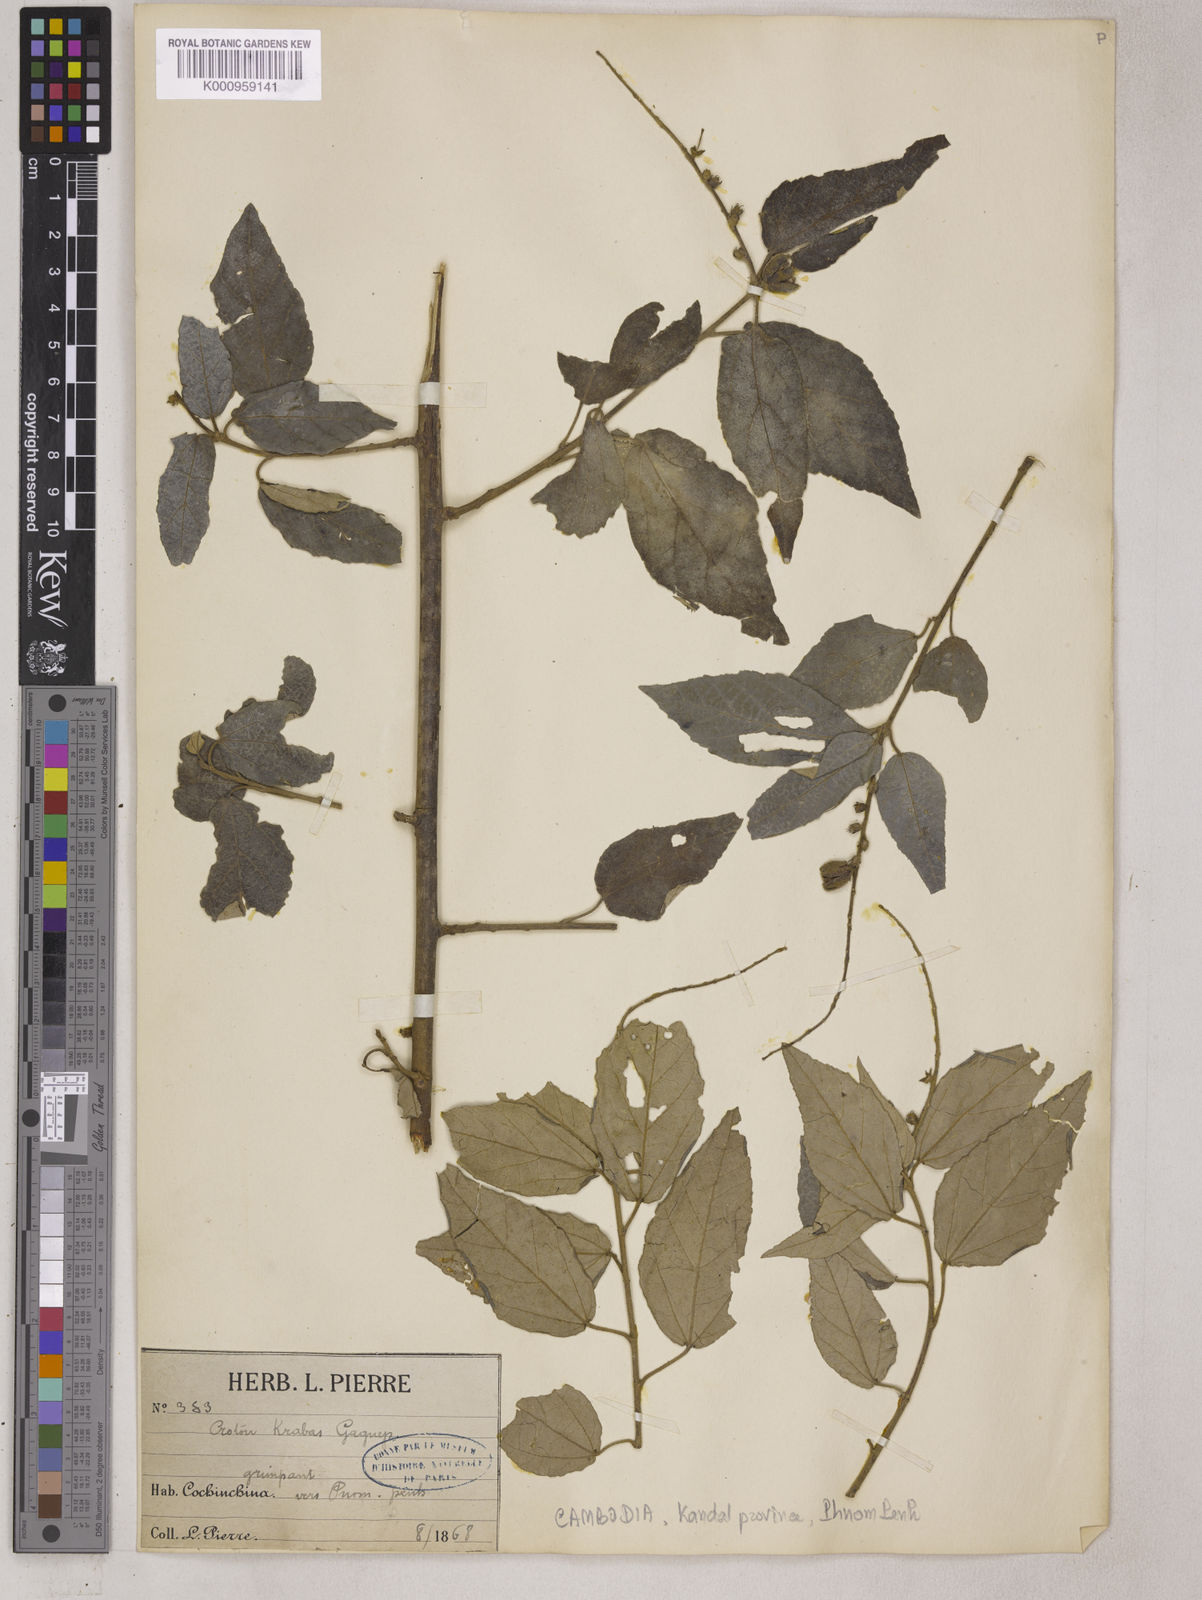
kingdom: Plantae
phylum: Tracheophyta
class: Magnoliopsida
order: Malpighiales
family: Euphorbiaceae
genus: Croton
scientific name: Croton krabas
